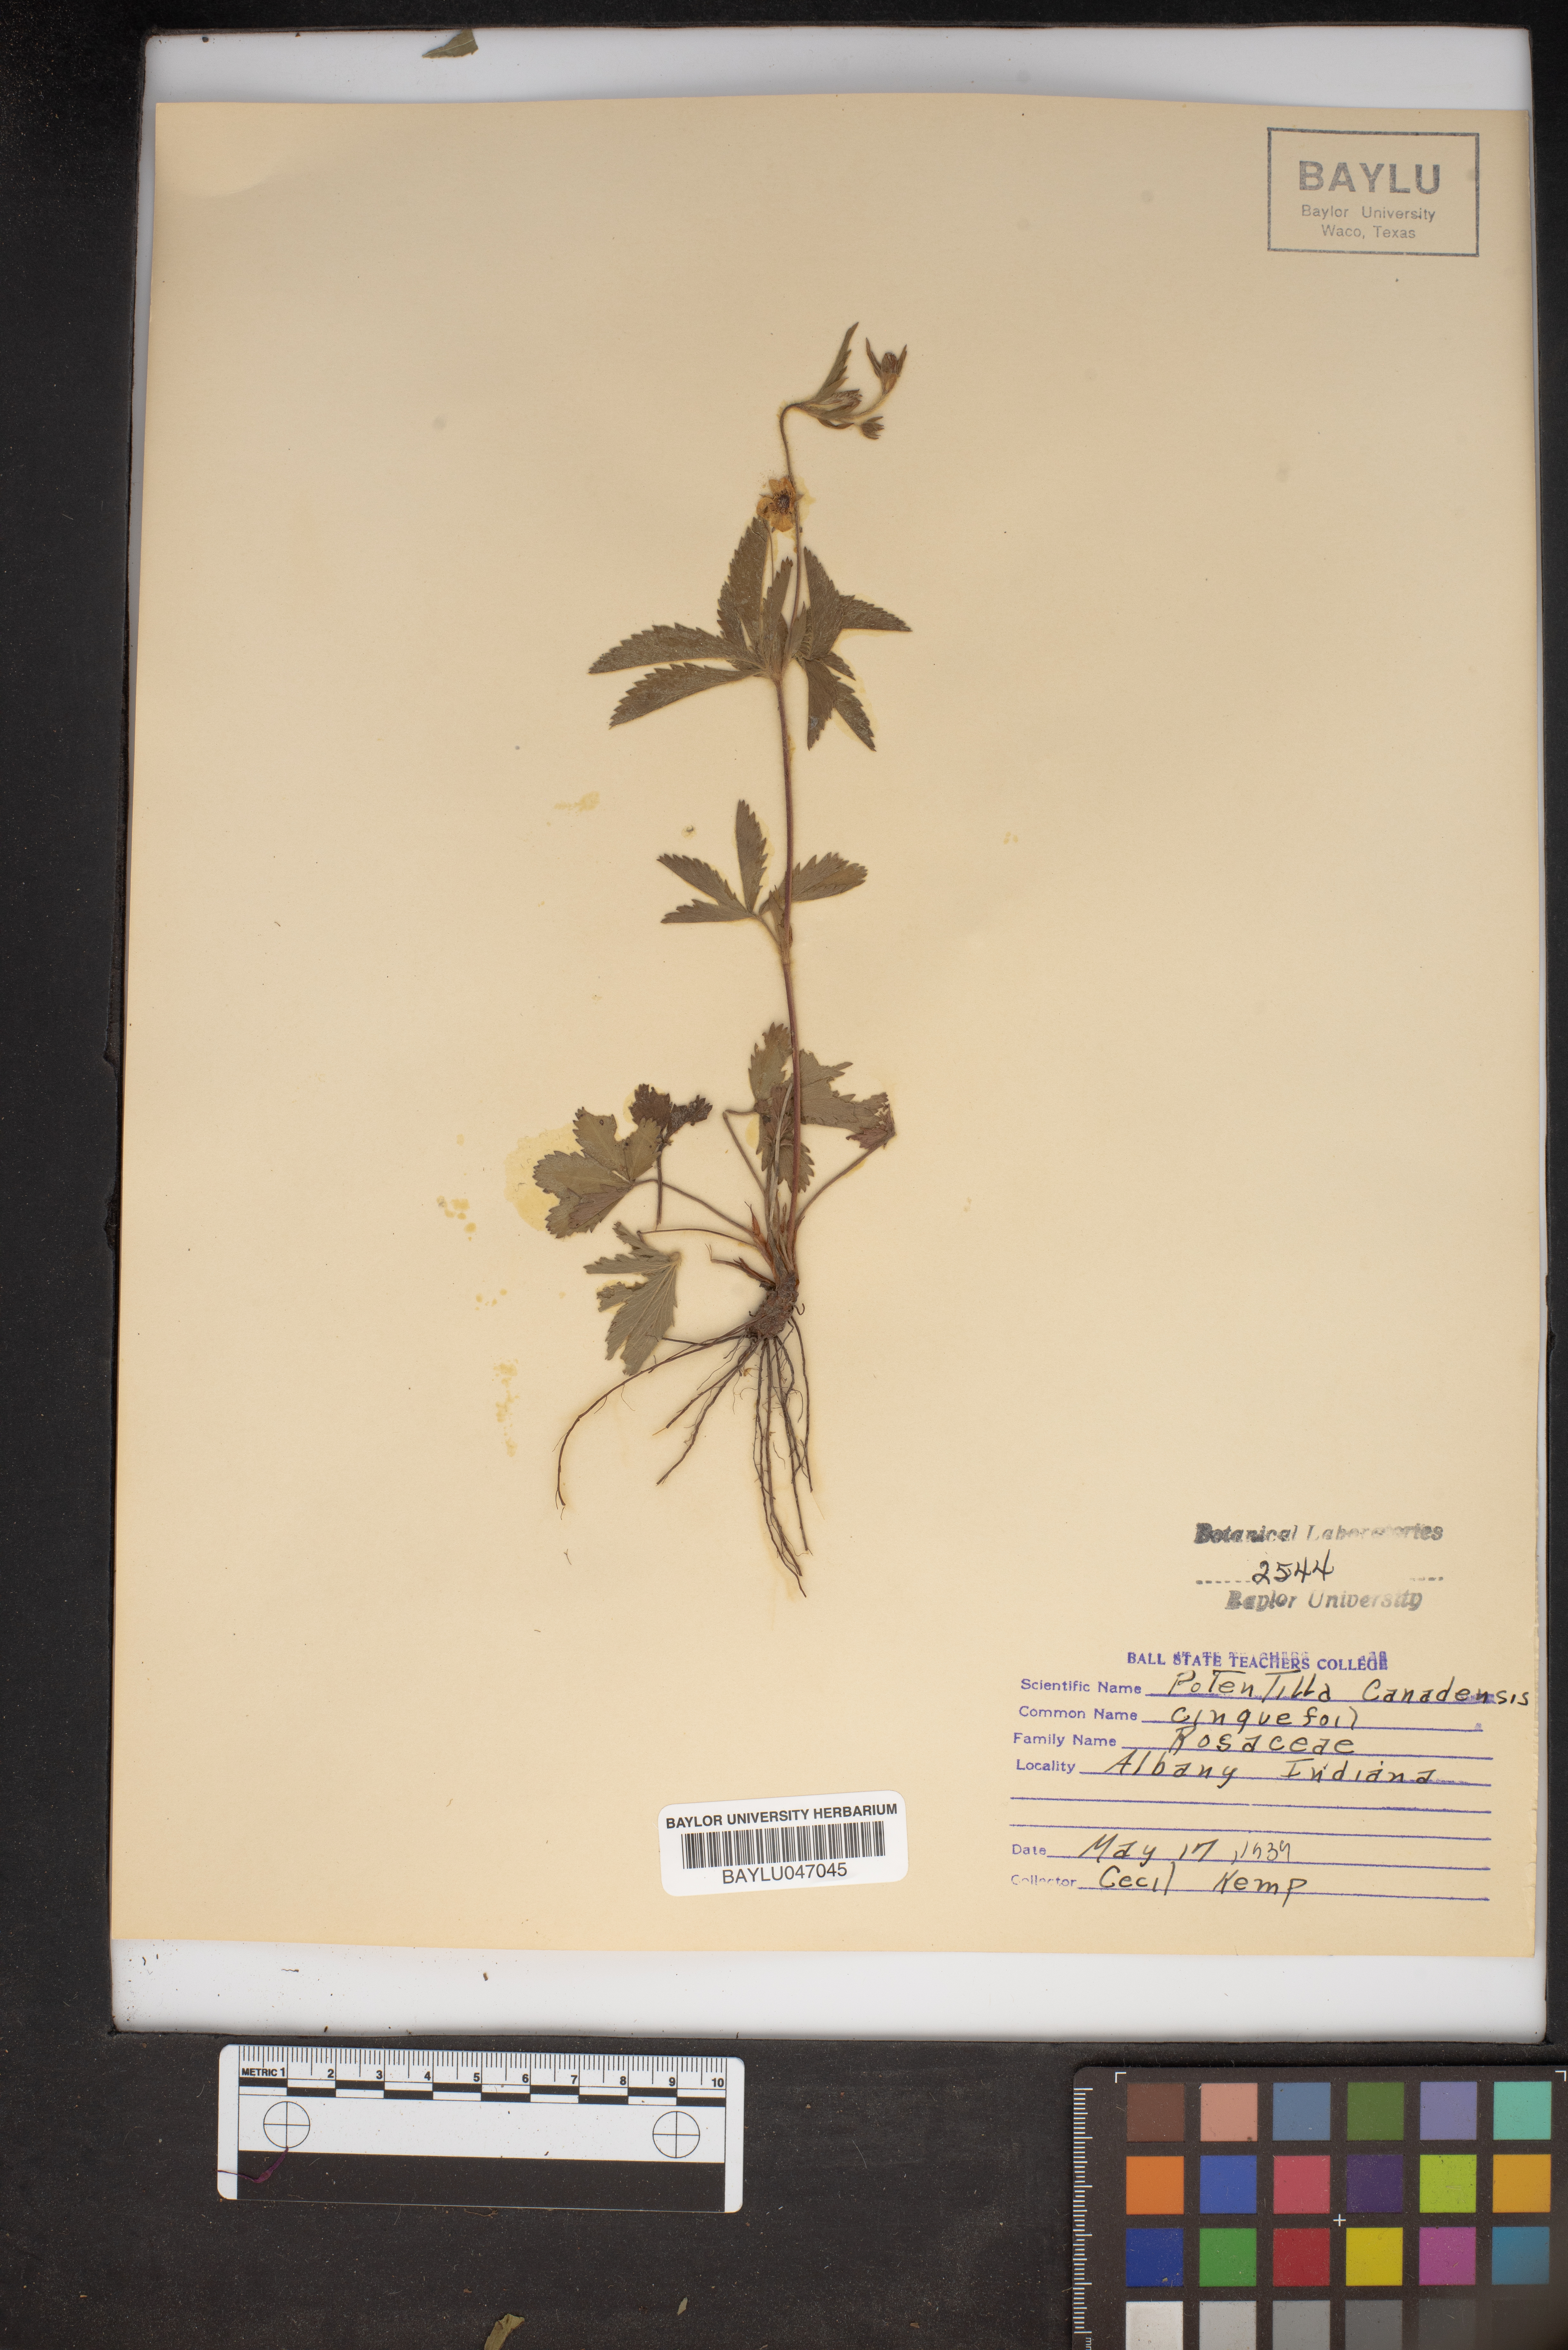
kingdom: Plantae
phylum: Tracheophyta
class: Magnoliopsida
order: Rosales
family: Rosaceae
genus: Potentilla
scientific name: Potentilla canadensis
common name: Canada cinquefoil
